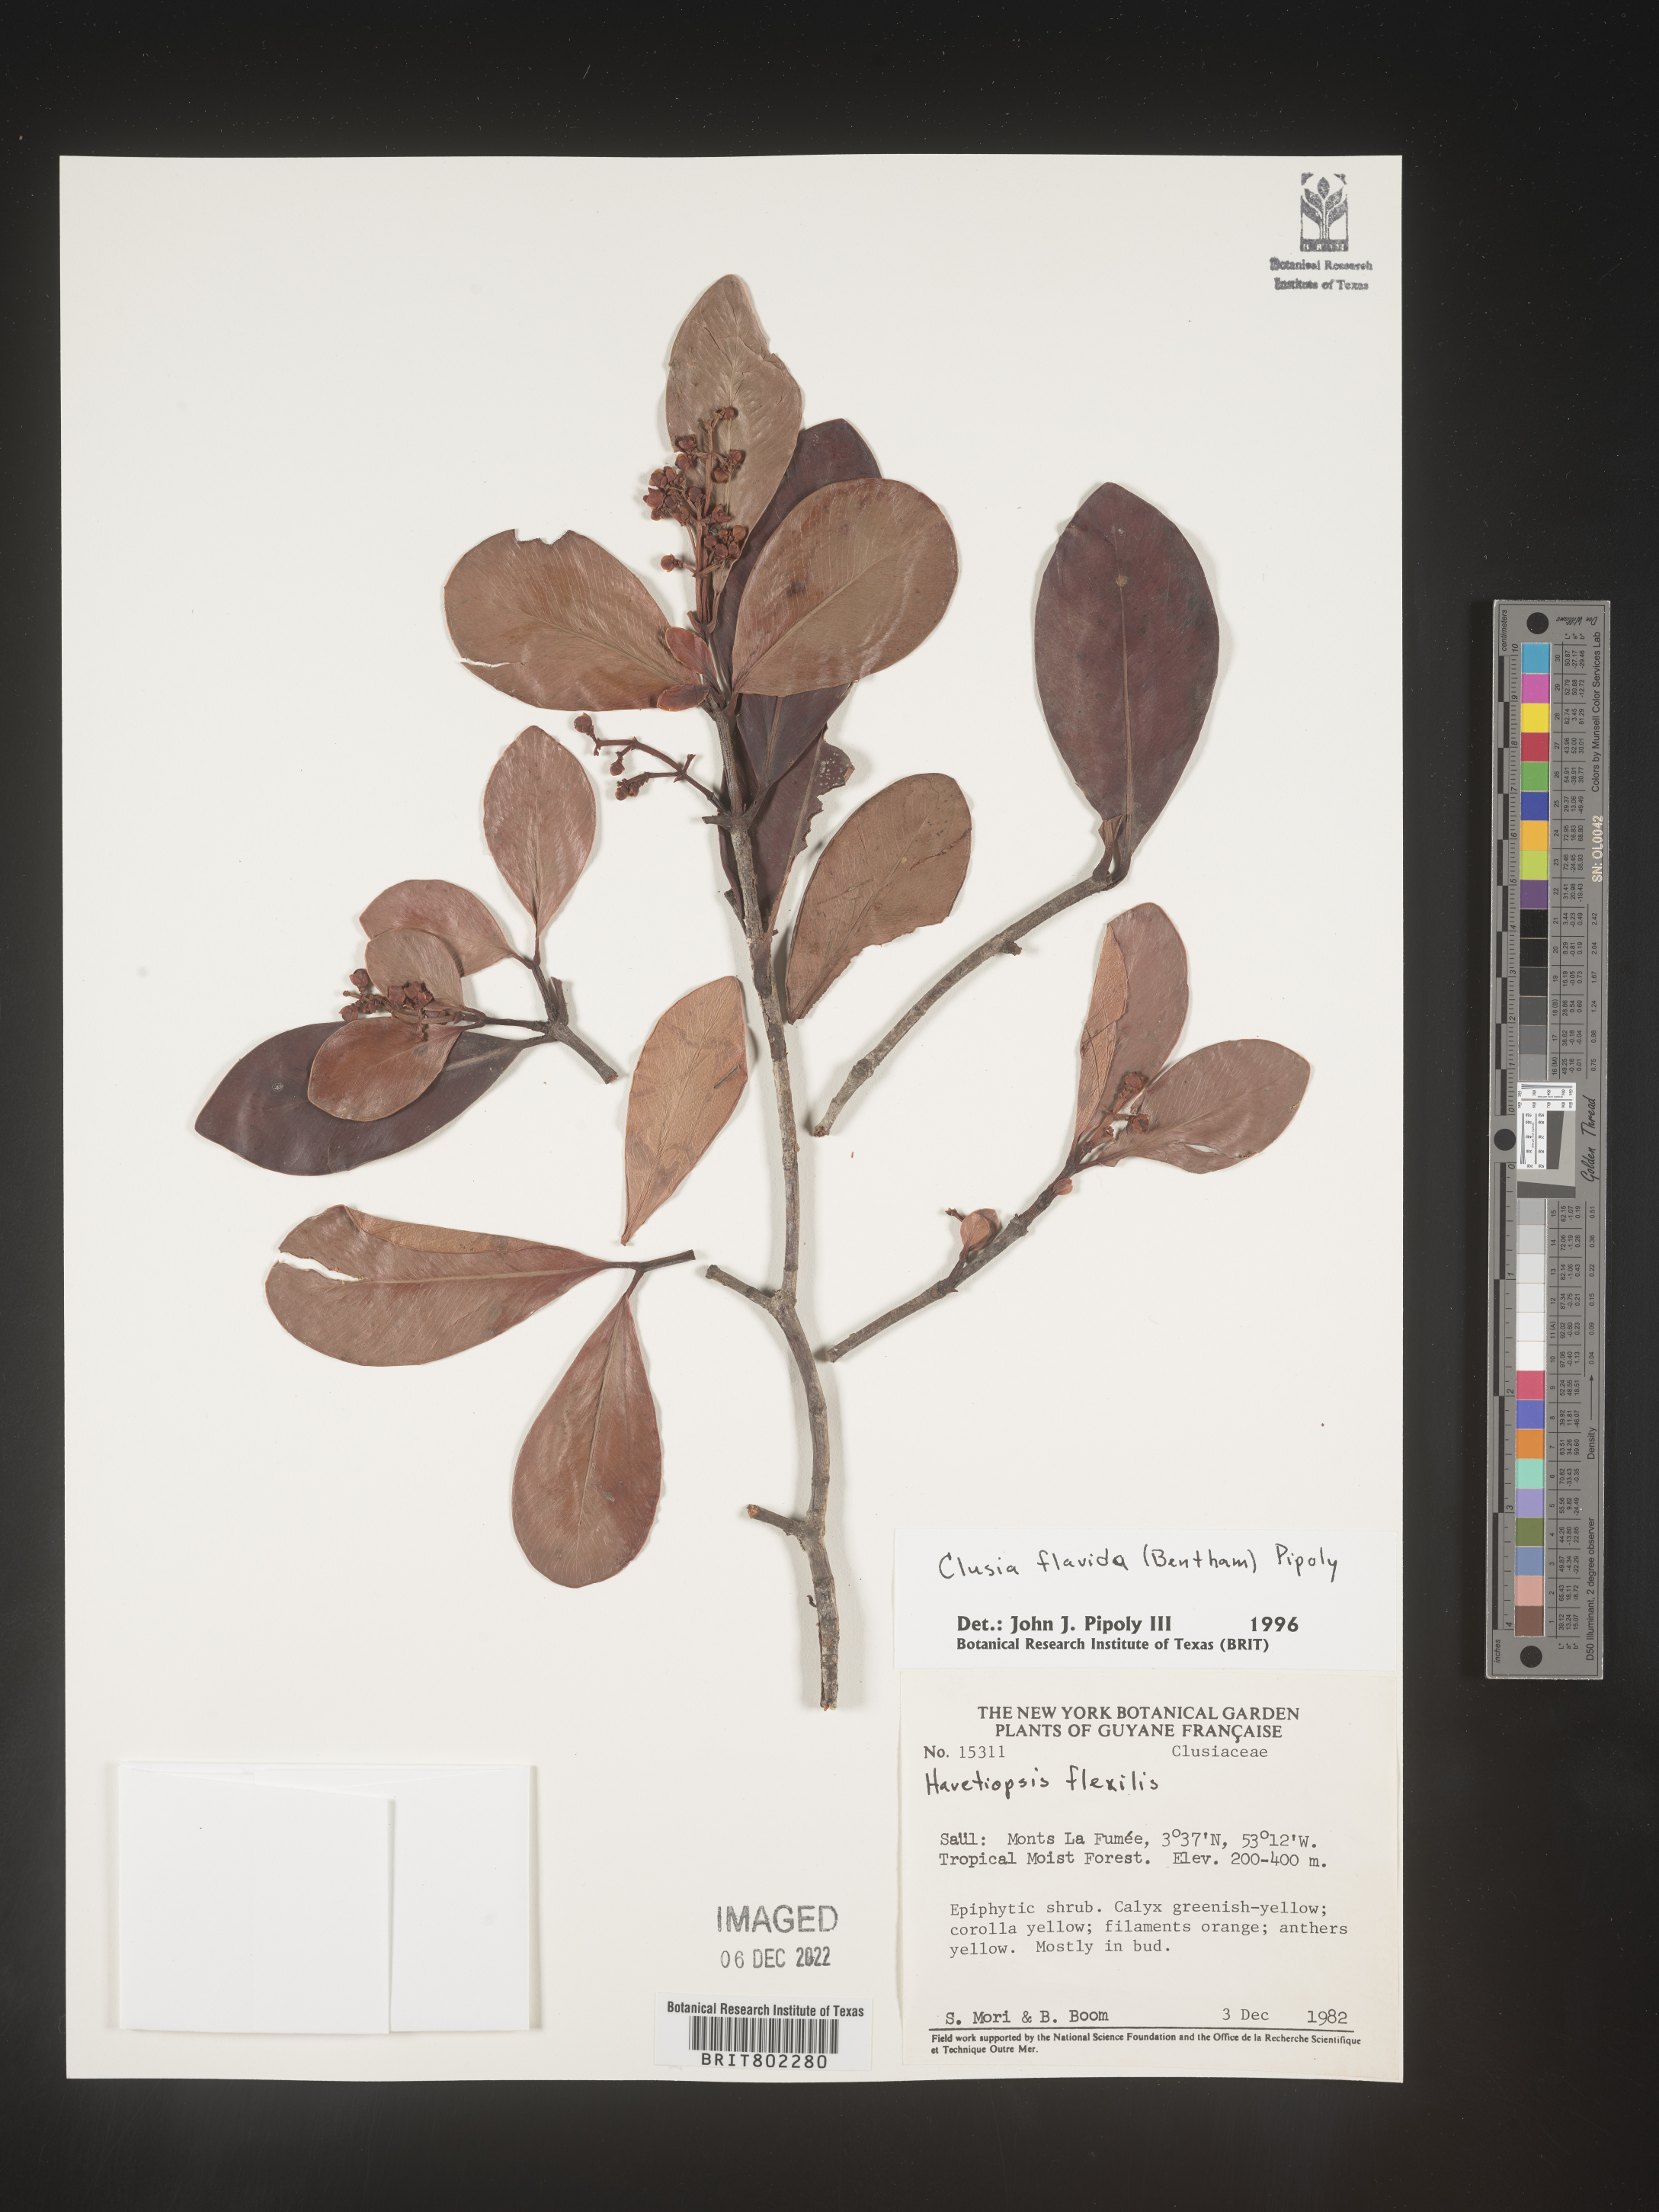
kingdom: Plantae
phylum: Tracheophyta
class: Magnoliopsida
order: Malpighiales
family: Clusiaceae
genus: Clusia
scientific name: Clusia flavida
